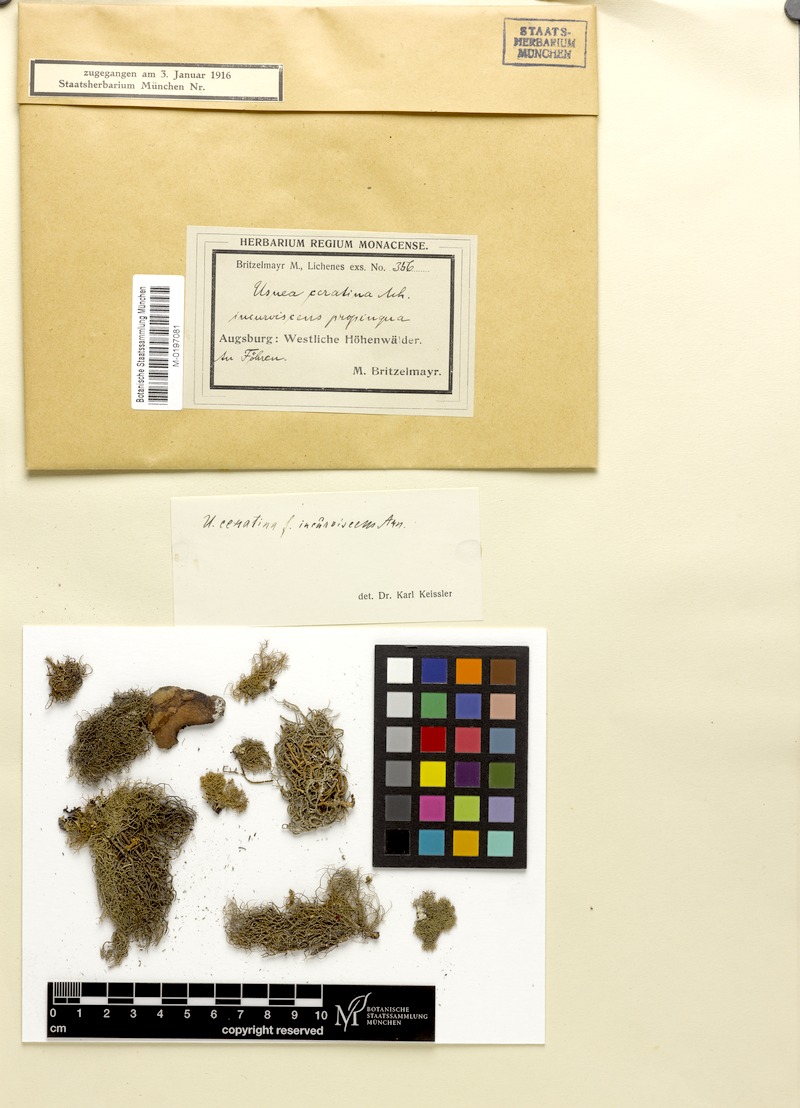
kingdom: Fungi
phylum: Ascomycota
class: Lecanoromycetes
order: Lecanorales
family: Parmeliaceae
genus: Usnea
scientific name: Usnea ceratina
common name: Warty beard lichen
